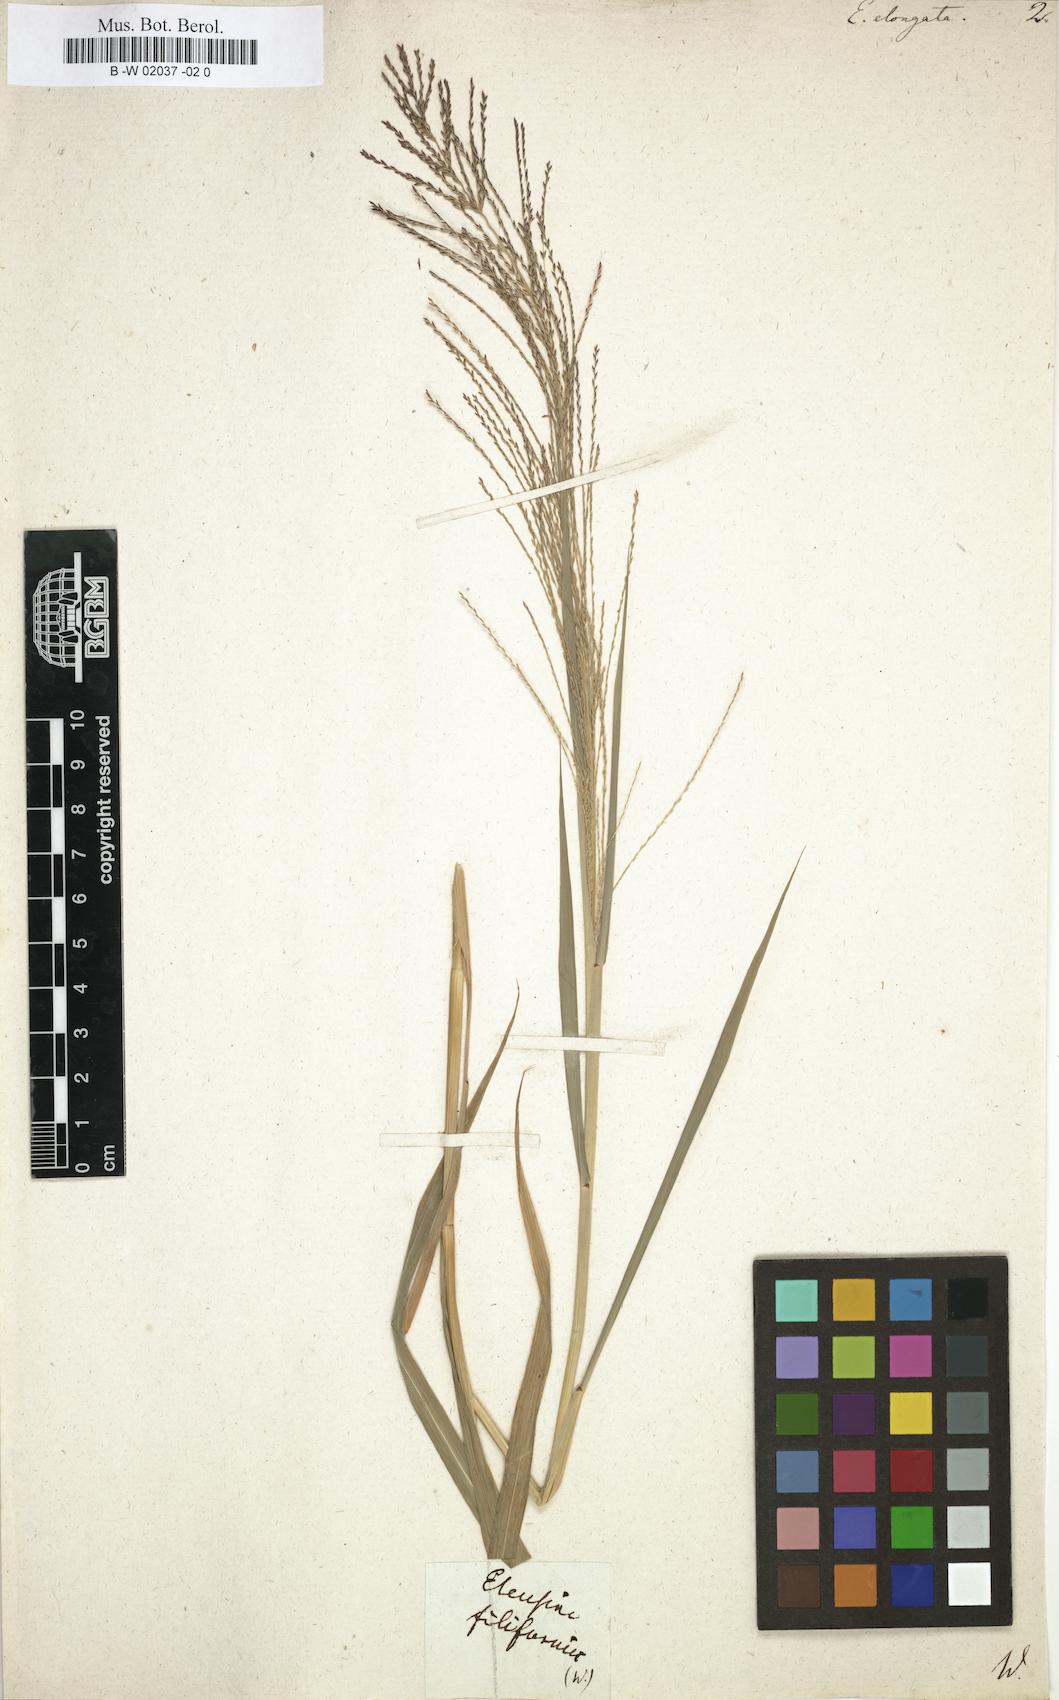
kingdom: Plantae
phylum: Tracheophyta
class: Liliopsida
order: Poales
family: Poaceae
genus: Leptochloa
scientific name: Leptochloa mucronata
